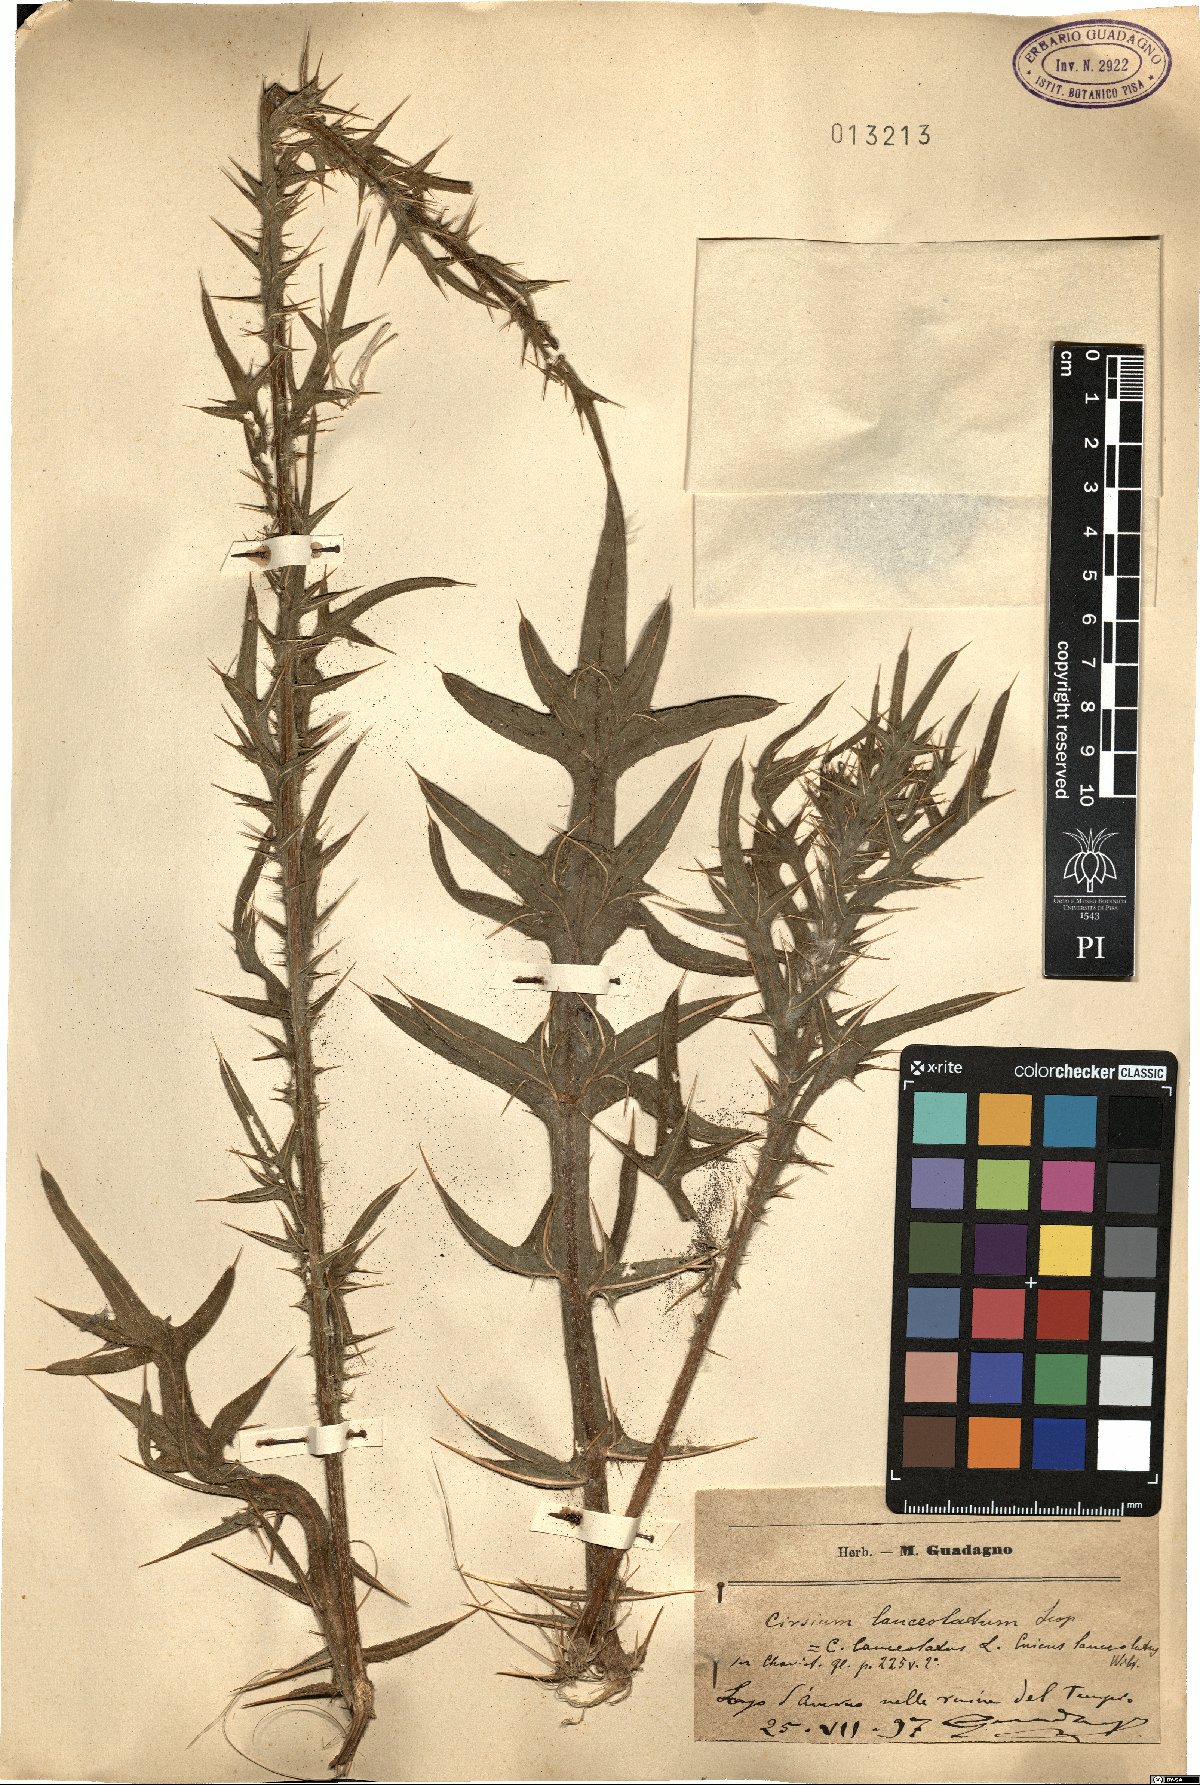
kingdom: Plantae
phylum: Tracheophyta
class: Magnoliopsida
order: Asterales
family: Asteraceae
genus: Cirsium
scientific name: Cirsium vulgare
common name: Bull thistle
